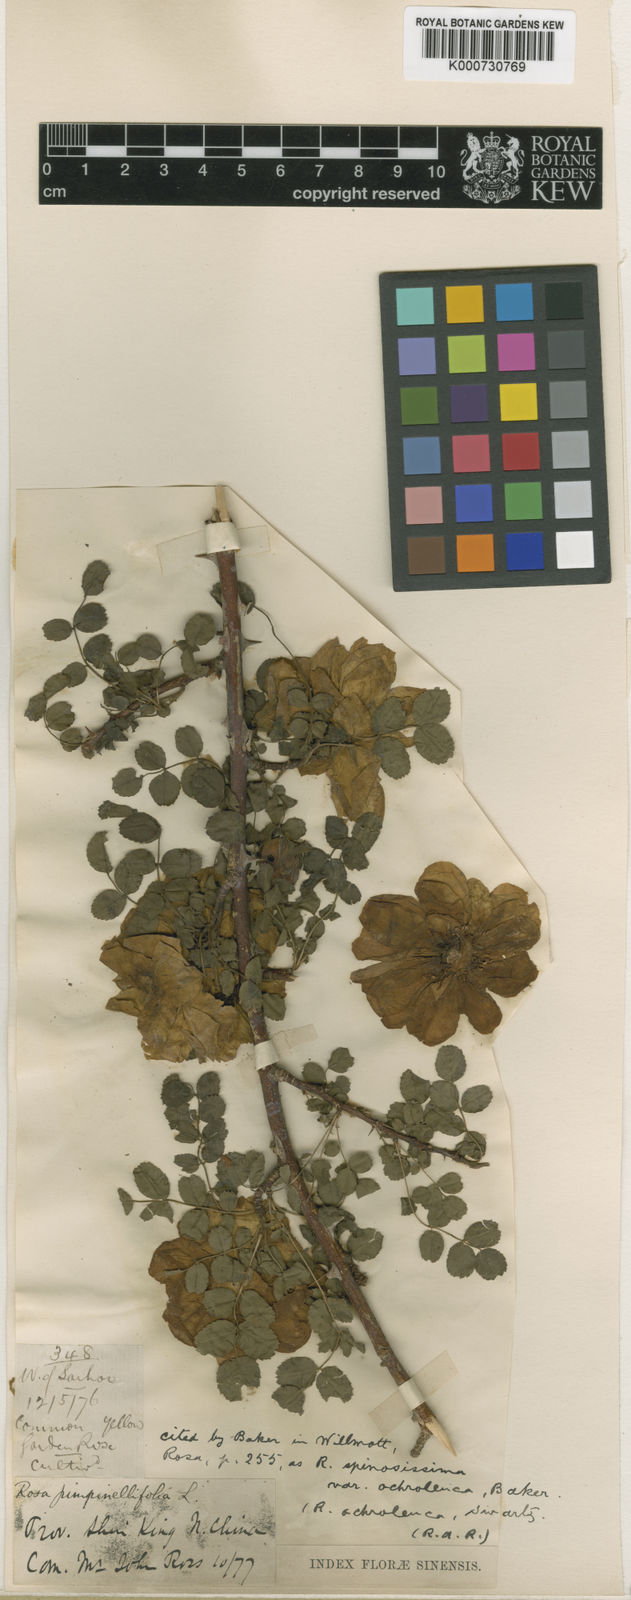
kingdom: Plantae
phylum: Tracheophyta
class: Magnoliopsida
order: Rosales
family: Rosaceae
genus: Rosa
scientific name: Rosa xanthina
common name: Yellow rose
